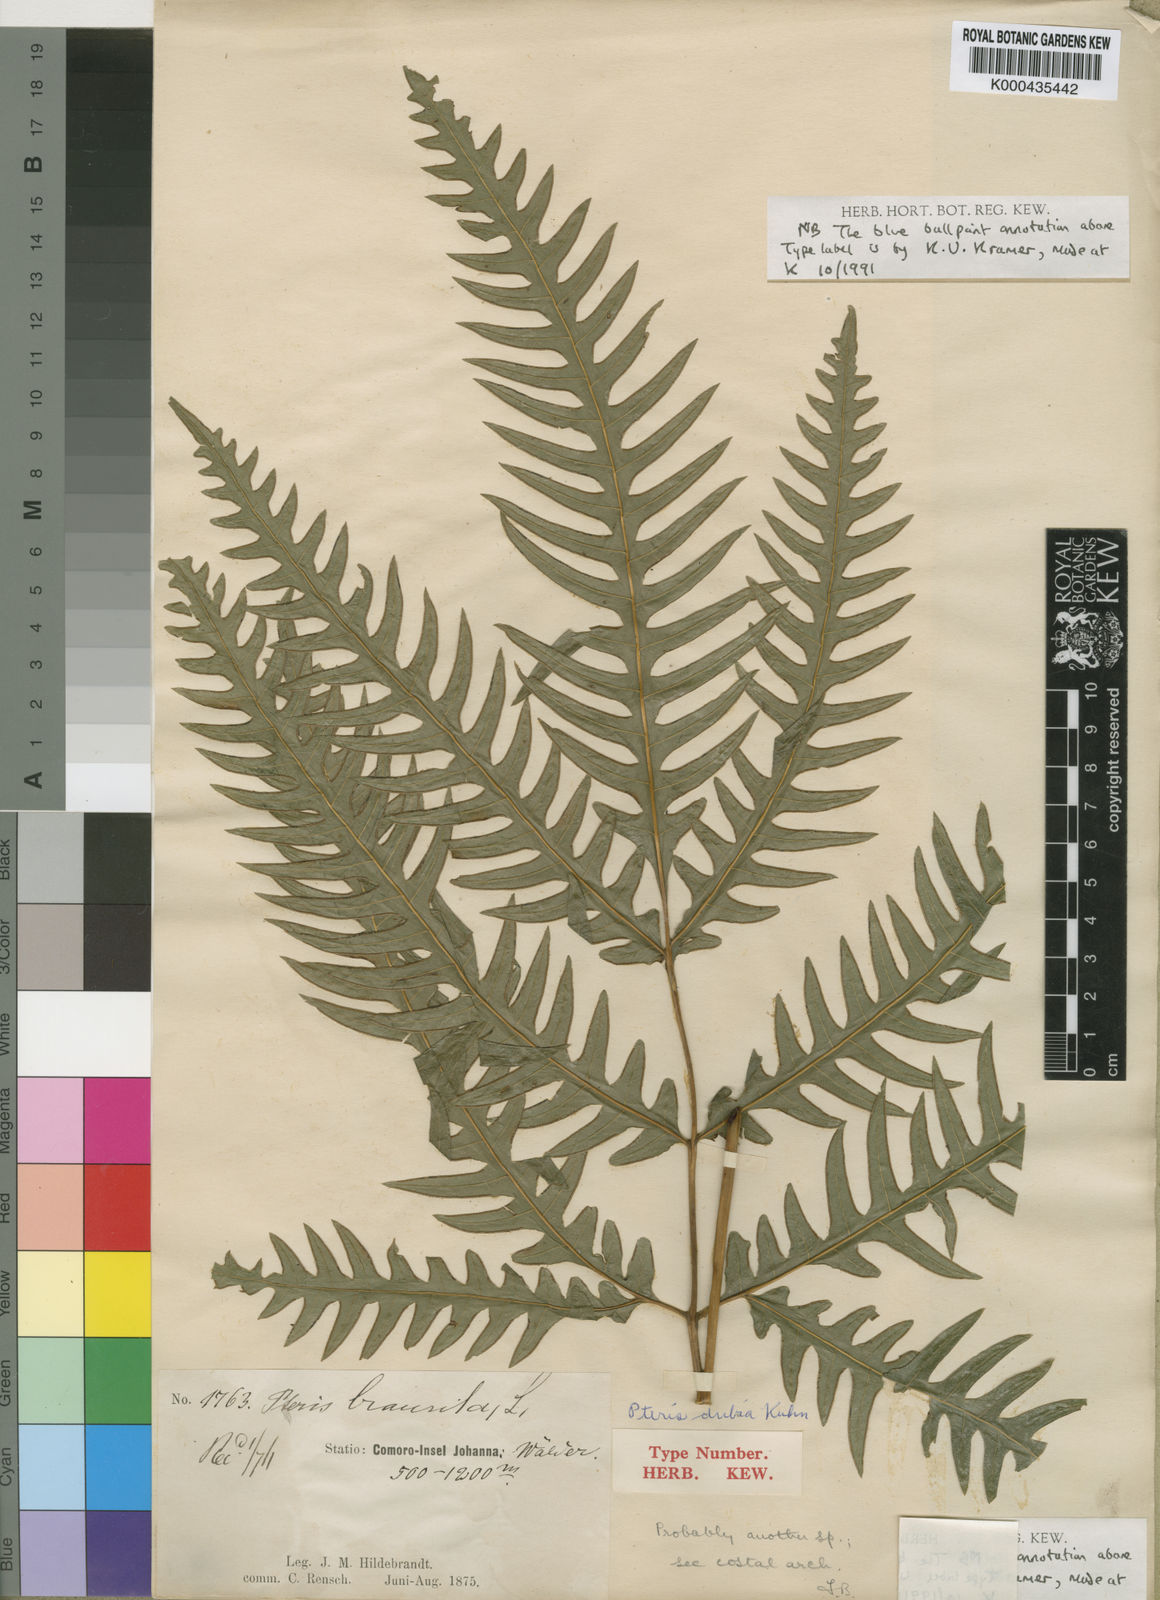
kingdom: Plantae
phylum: Tracheophyta
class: Polypodiopsida
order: Polypodiales
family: Pteridaceae
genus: Pteris
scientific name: Pteris geminata
